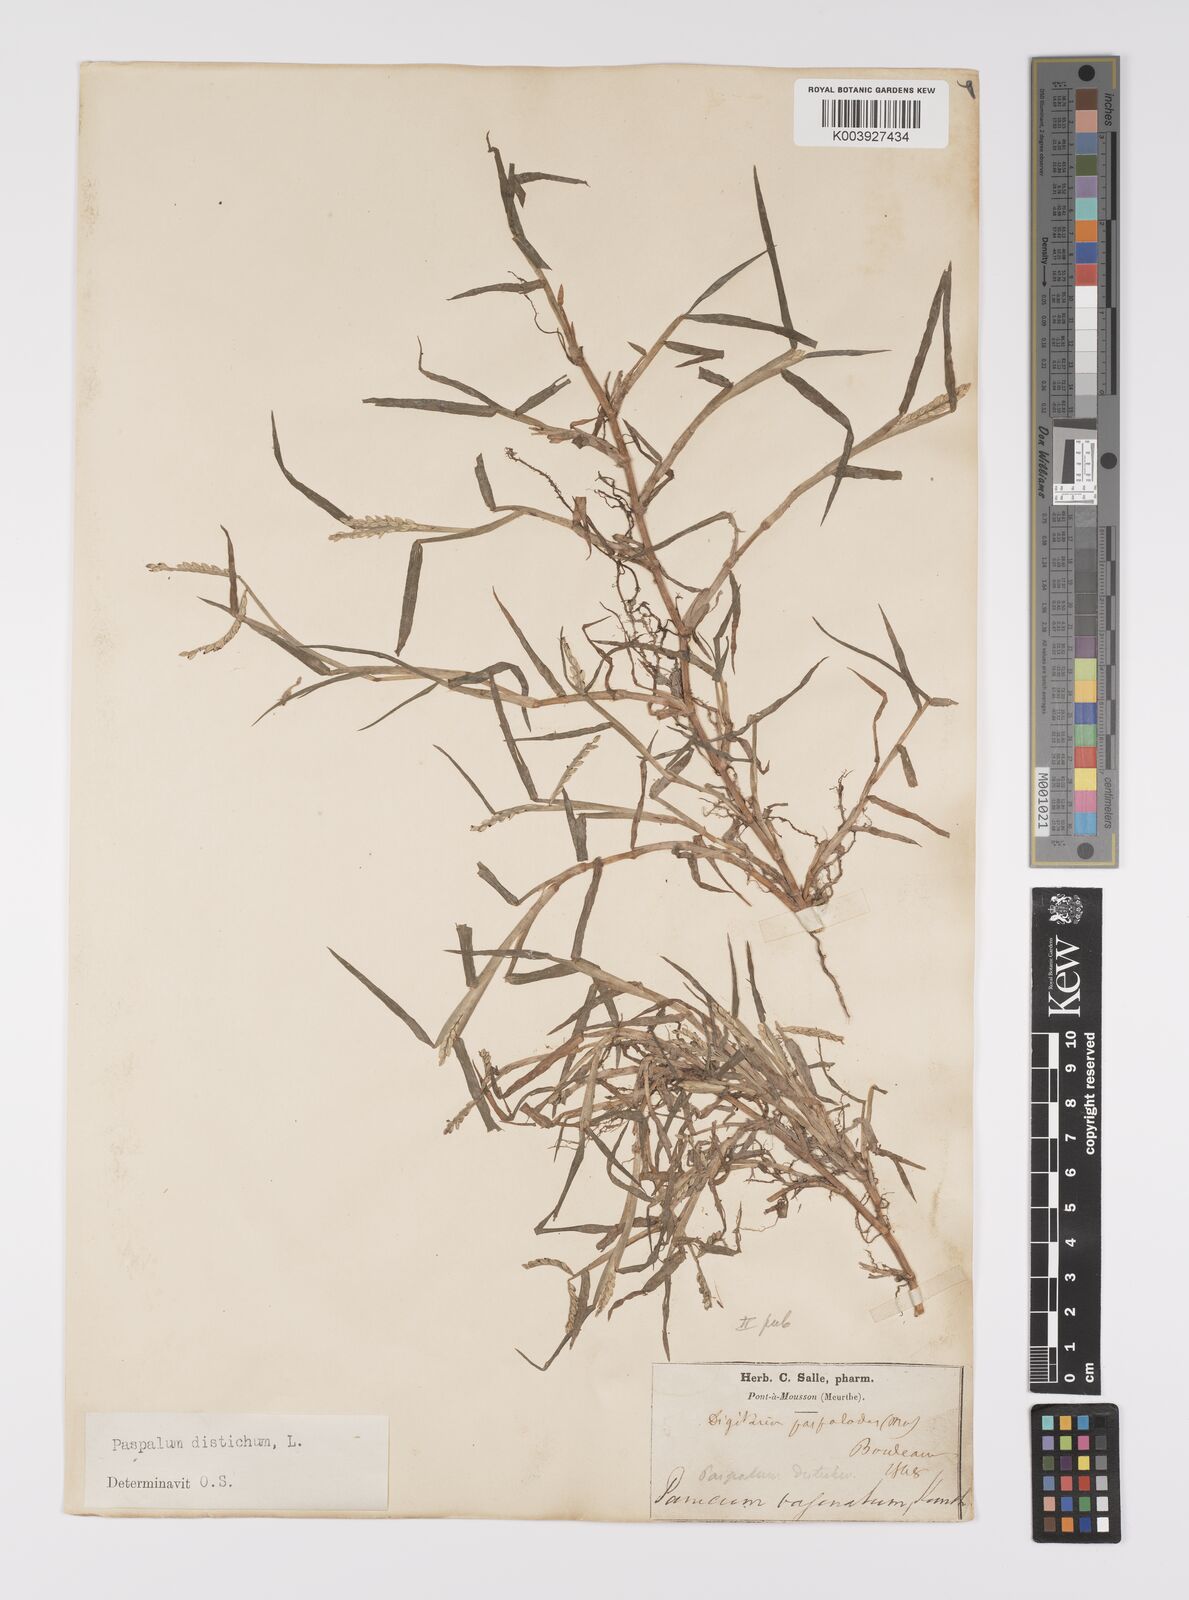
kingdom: Plantae
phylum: Tracheophyta
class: Liliopsida
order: Poales
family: Poaceae
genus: Paspalum
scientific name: Paspalum distichum
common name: Knotgrass
